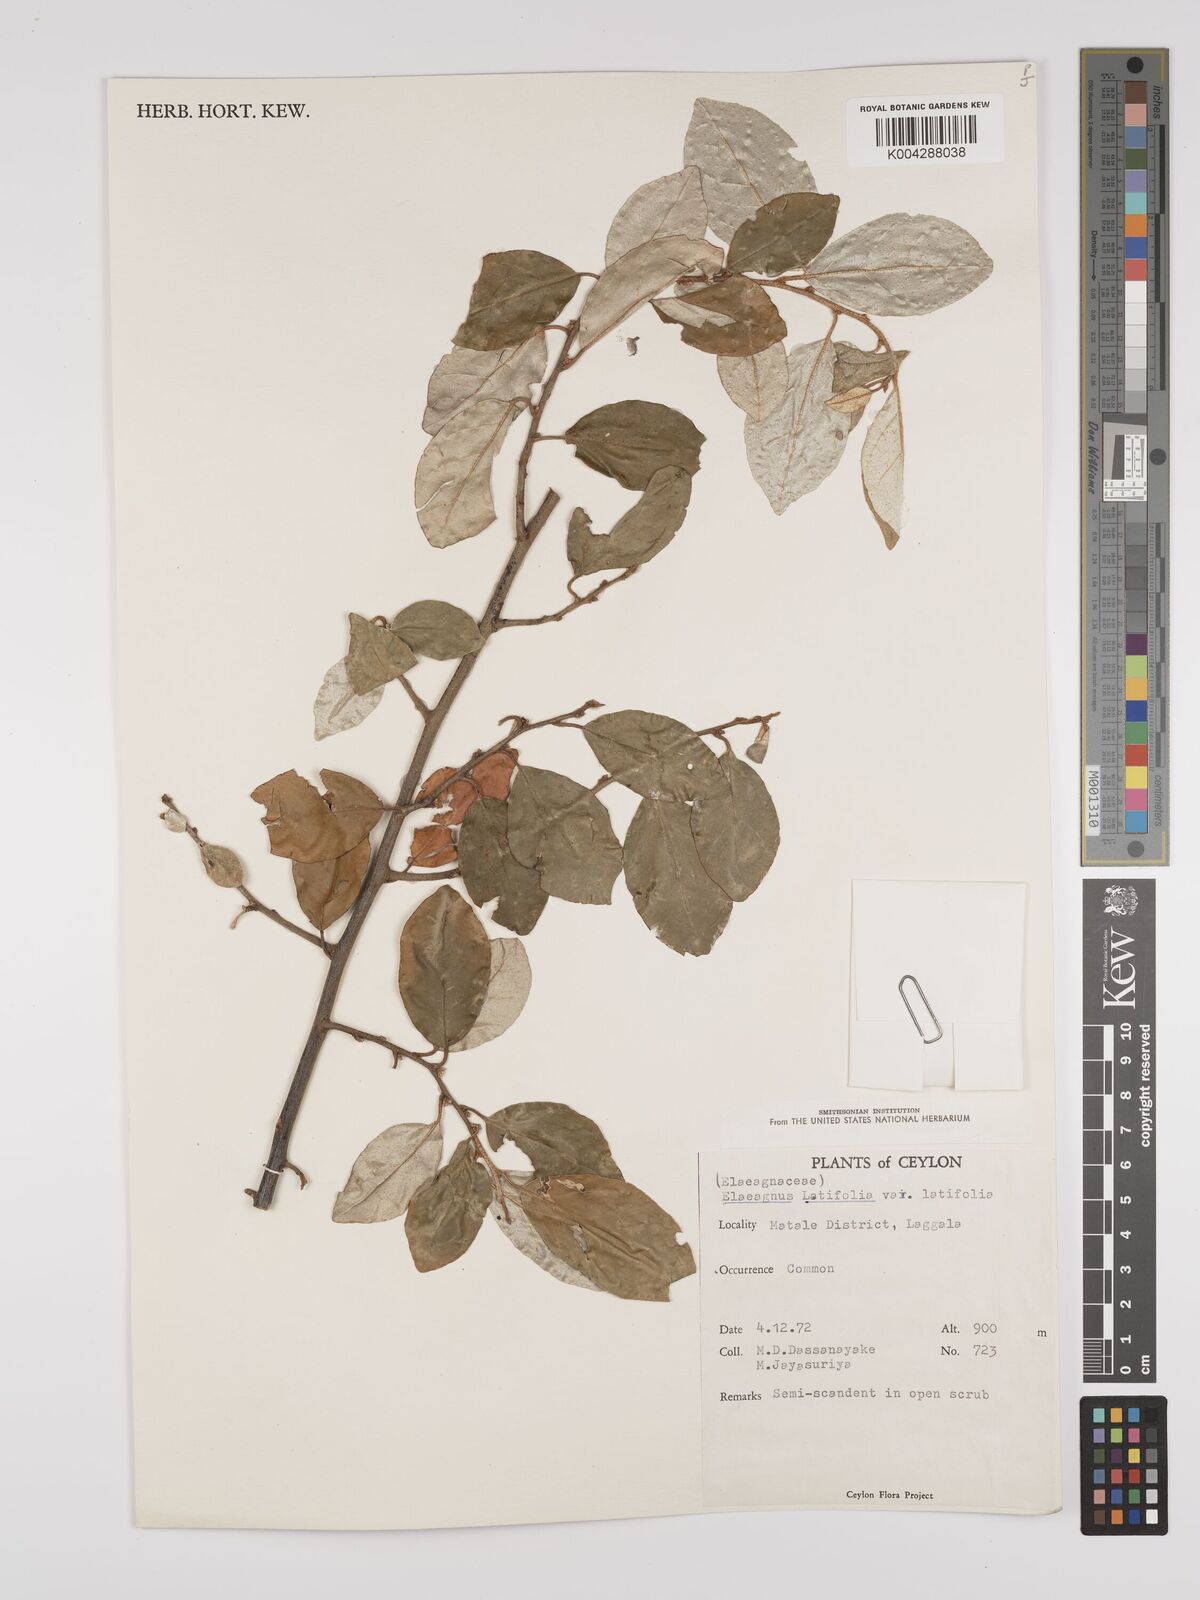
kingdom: Plantae
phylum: Tracheophyta
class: Magnoliopsida
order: Rosales
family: Elaeagnaceae
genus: Elaeagnus
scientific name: Elaeagnus latifolia
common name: Oleaster
